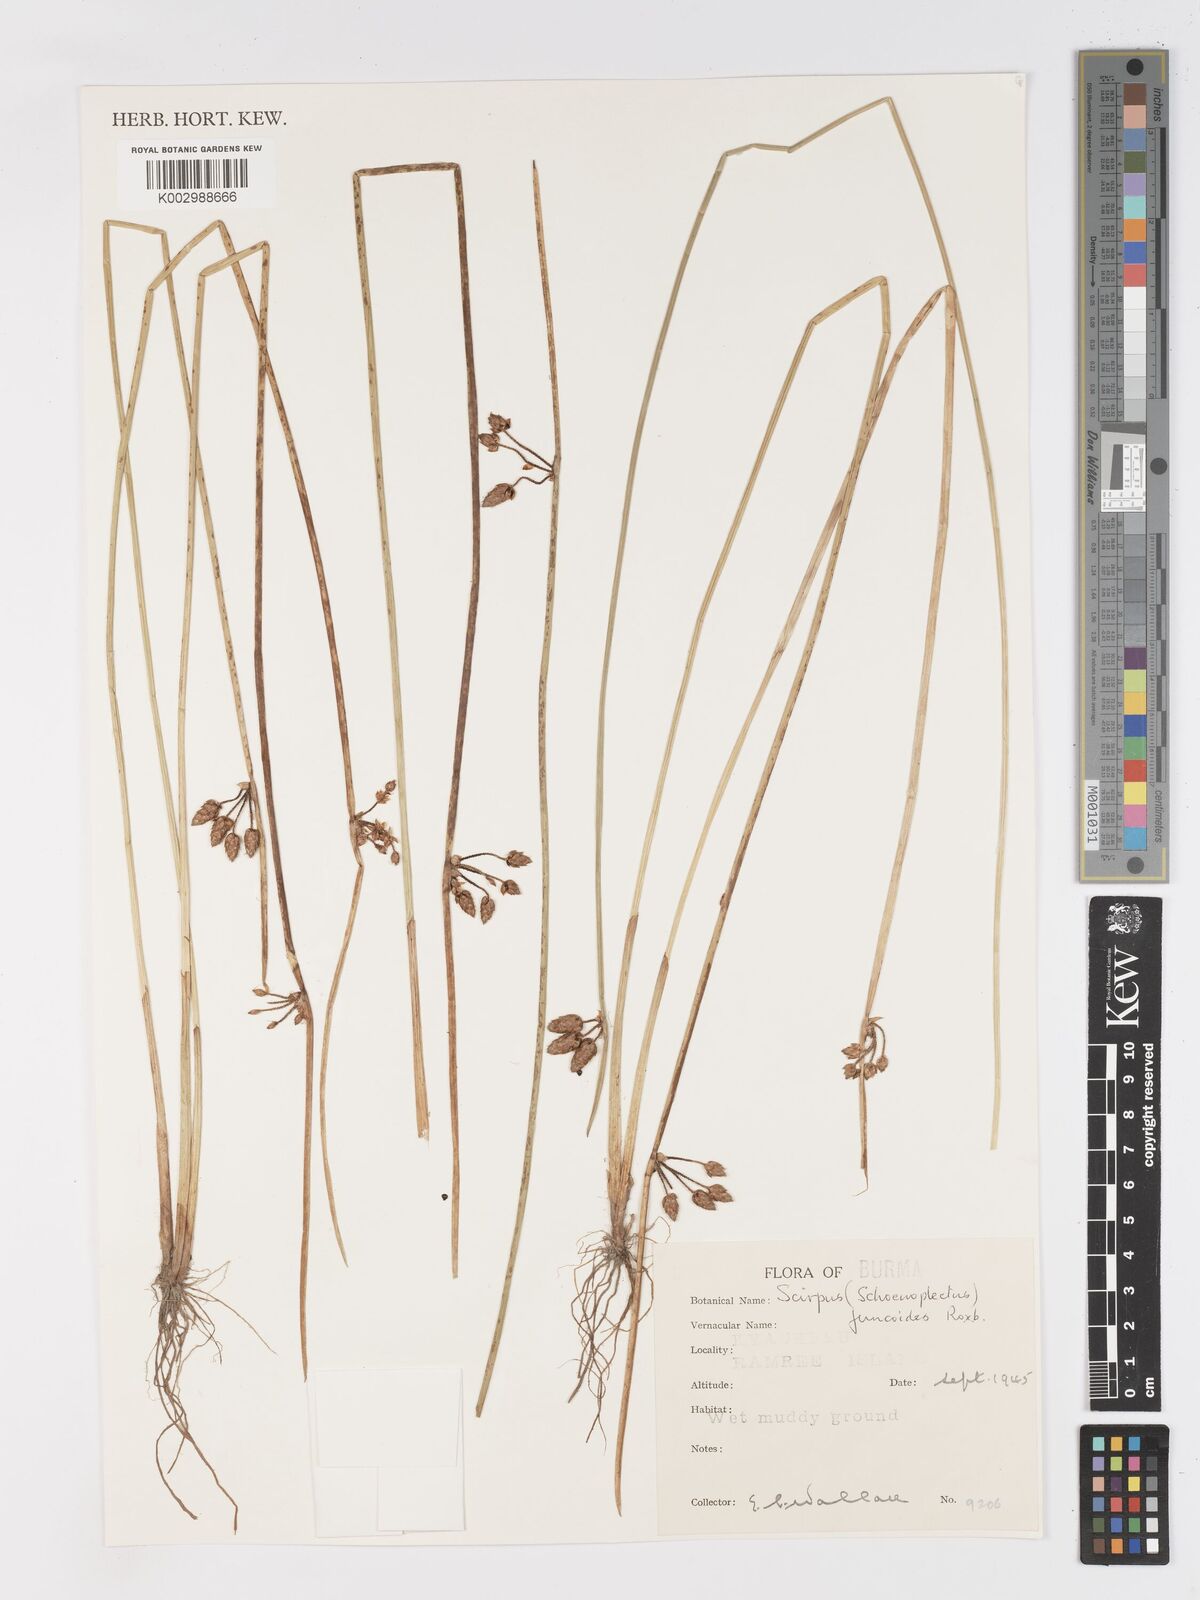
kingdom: Plantae
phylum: Tracheophyta
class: Liliopsida
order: Poales
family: Cyperaceae
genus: Schoenoplectiella
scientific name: Schoenoplectiella juncoides
